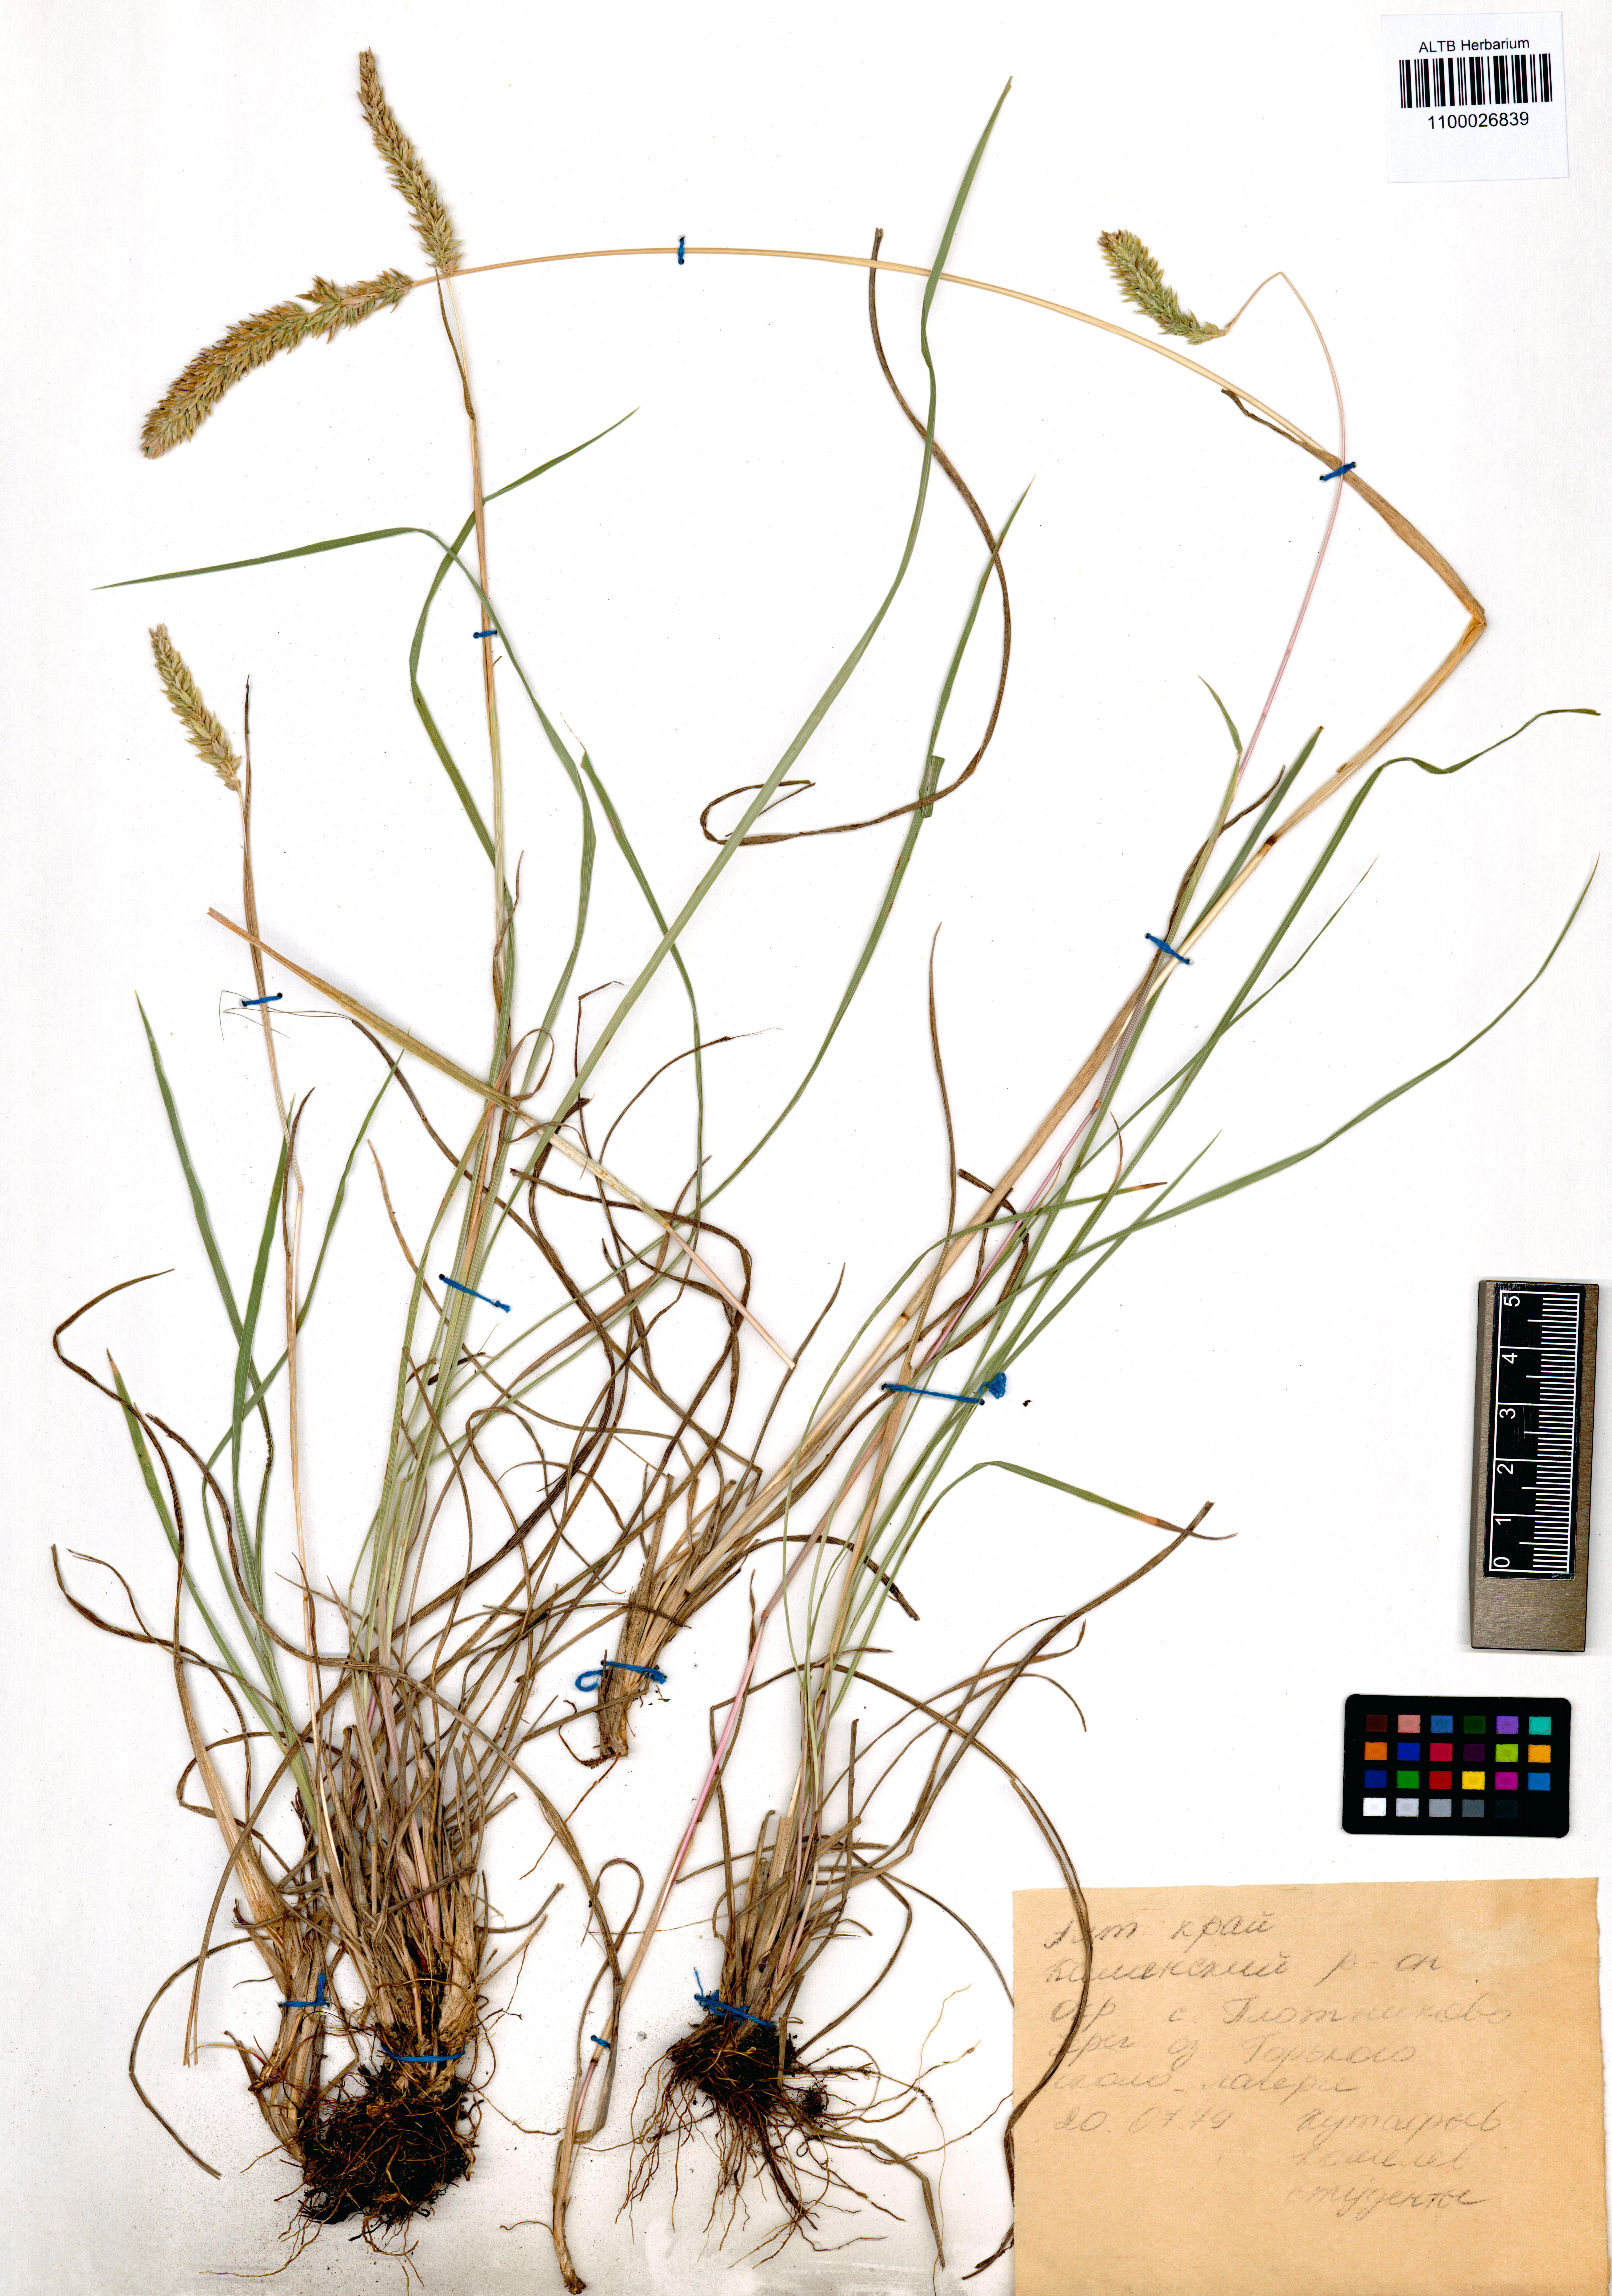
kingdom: Plantae
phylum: Tracheophyta
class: Liliopsida
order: Poales
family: Poaceae
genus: Phleum
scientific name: Phleum phleoides
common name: Purple-stem cat's-tail
